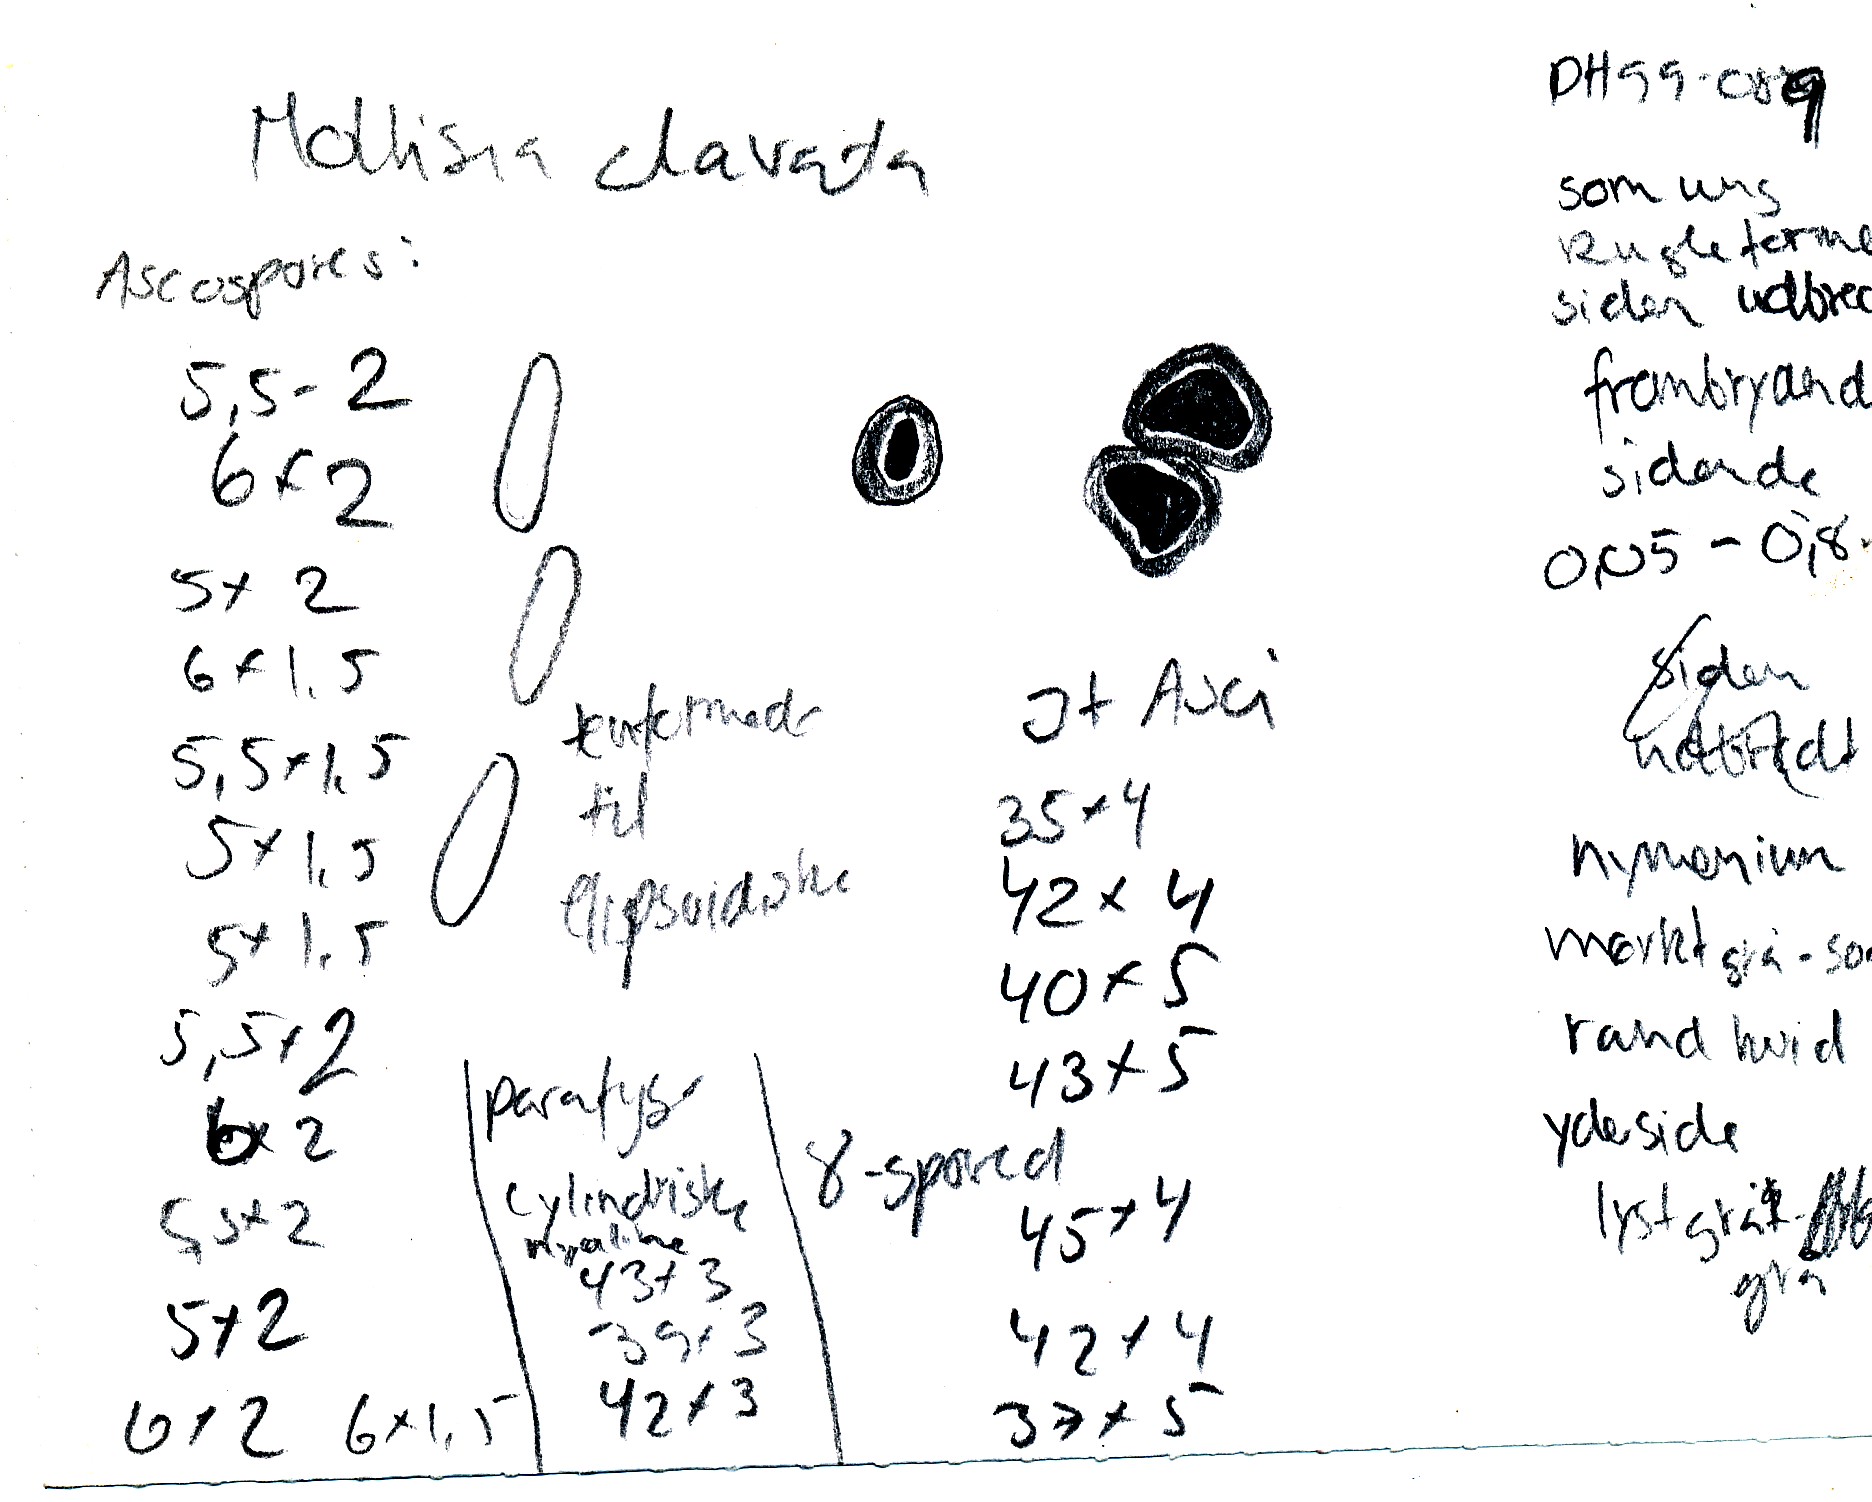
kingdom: Fungi
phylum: Ascomycota
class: Leotiomycetes
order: Helotiales
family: Mollisiaceae
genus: Mollisia
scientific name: Mollisia clavata
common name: dueurt-gråskive
